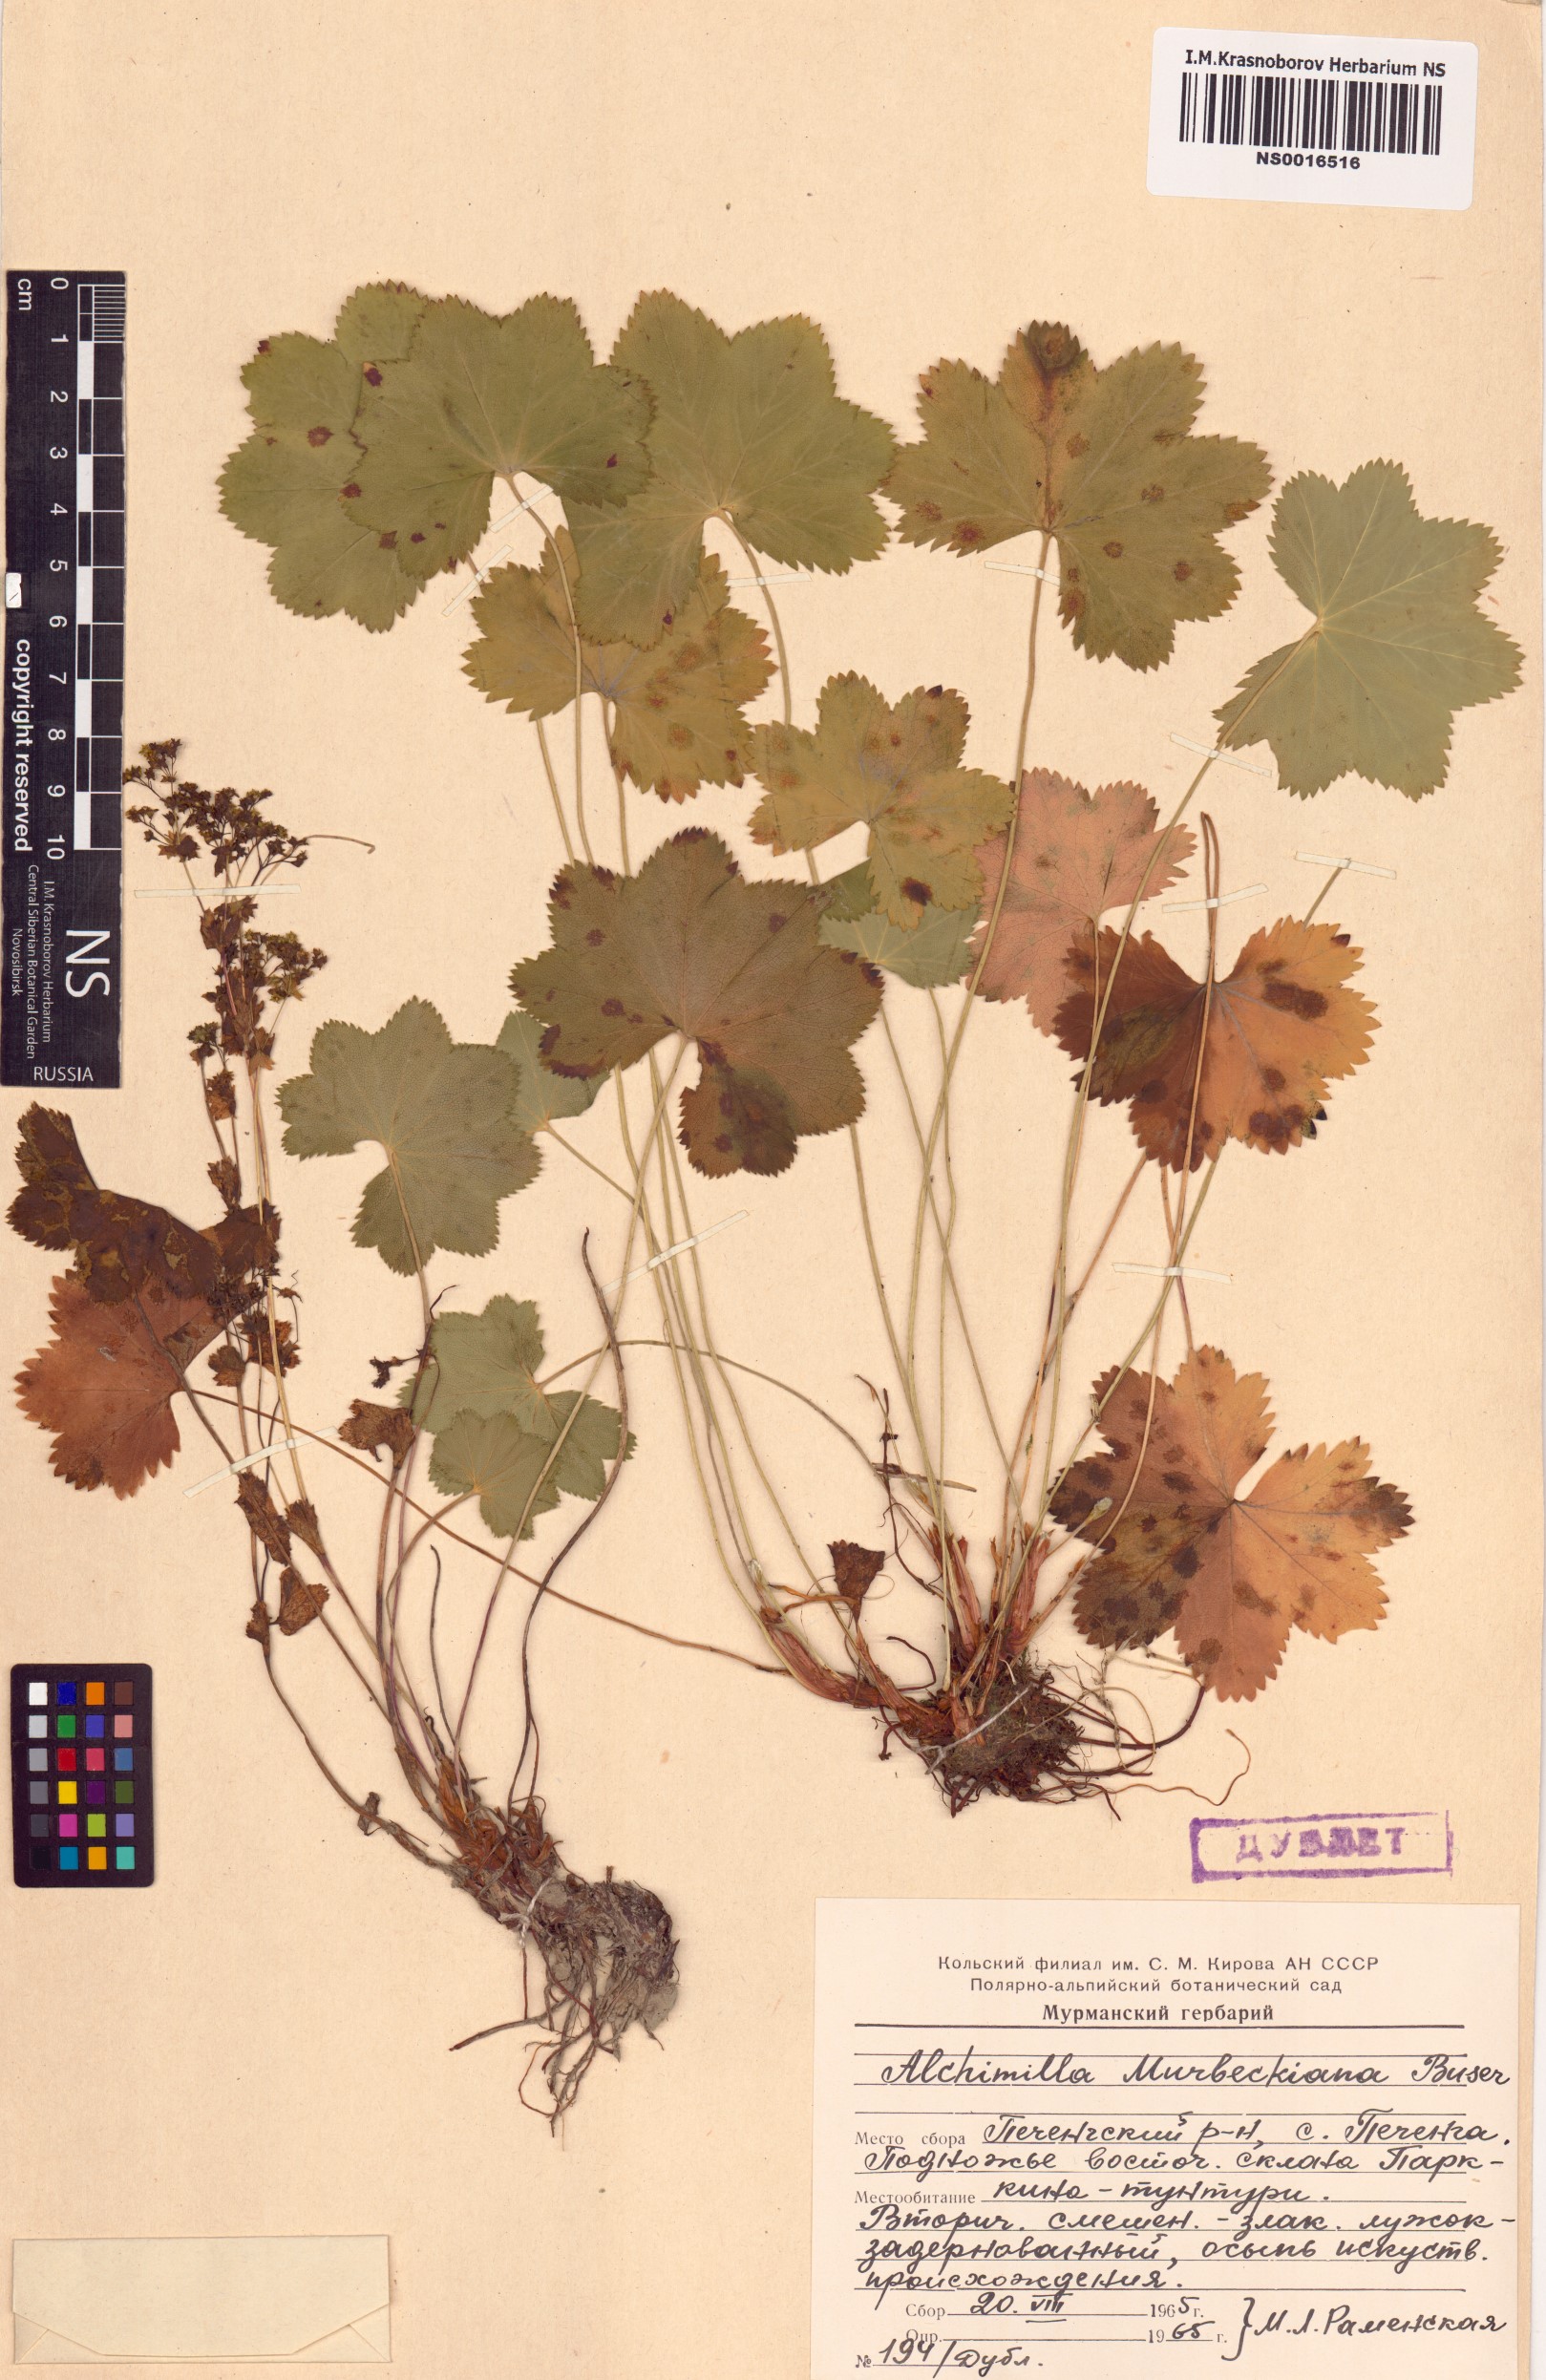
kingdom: Plantae
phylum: Tracheophyta
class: Magnoliopsida
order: Rosales
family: Rosaceae
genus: Alchemilla
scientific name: Alchemilla murbeckiana
